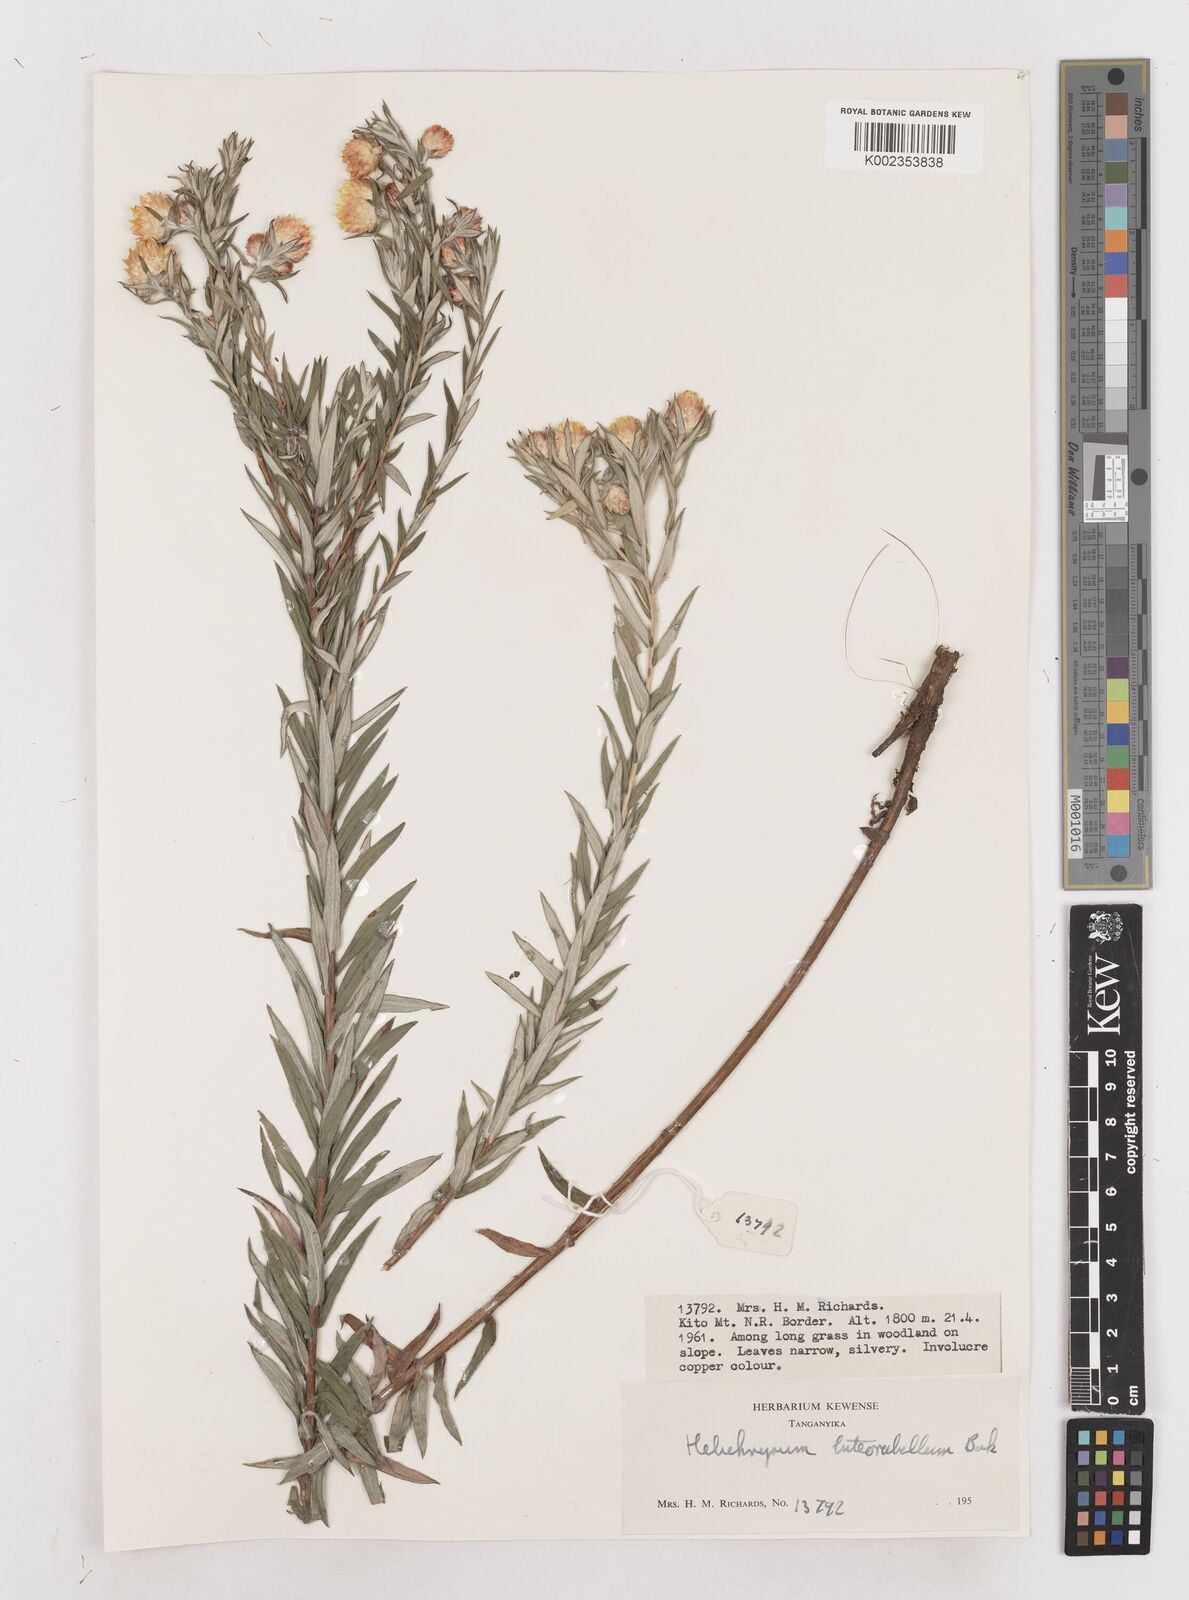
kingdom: Plantae
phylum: Tracheophyta
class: Magnoliopsida
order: Asterales
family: Asteraceae
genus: Helichrysum
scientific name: Helichrysum kirkii
